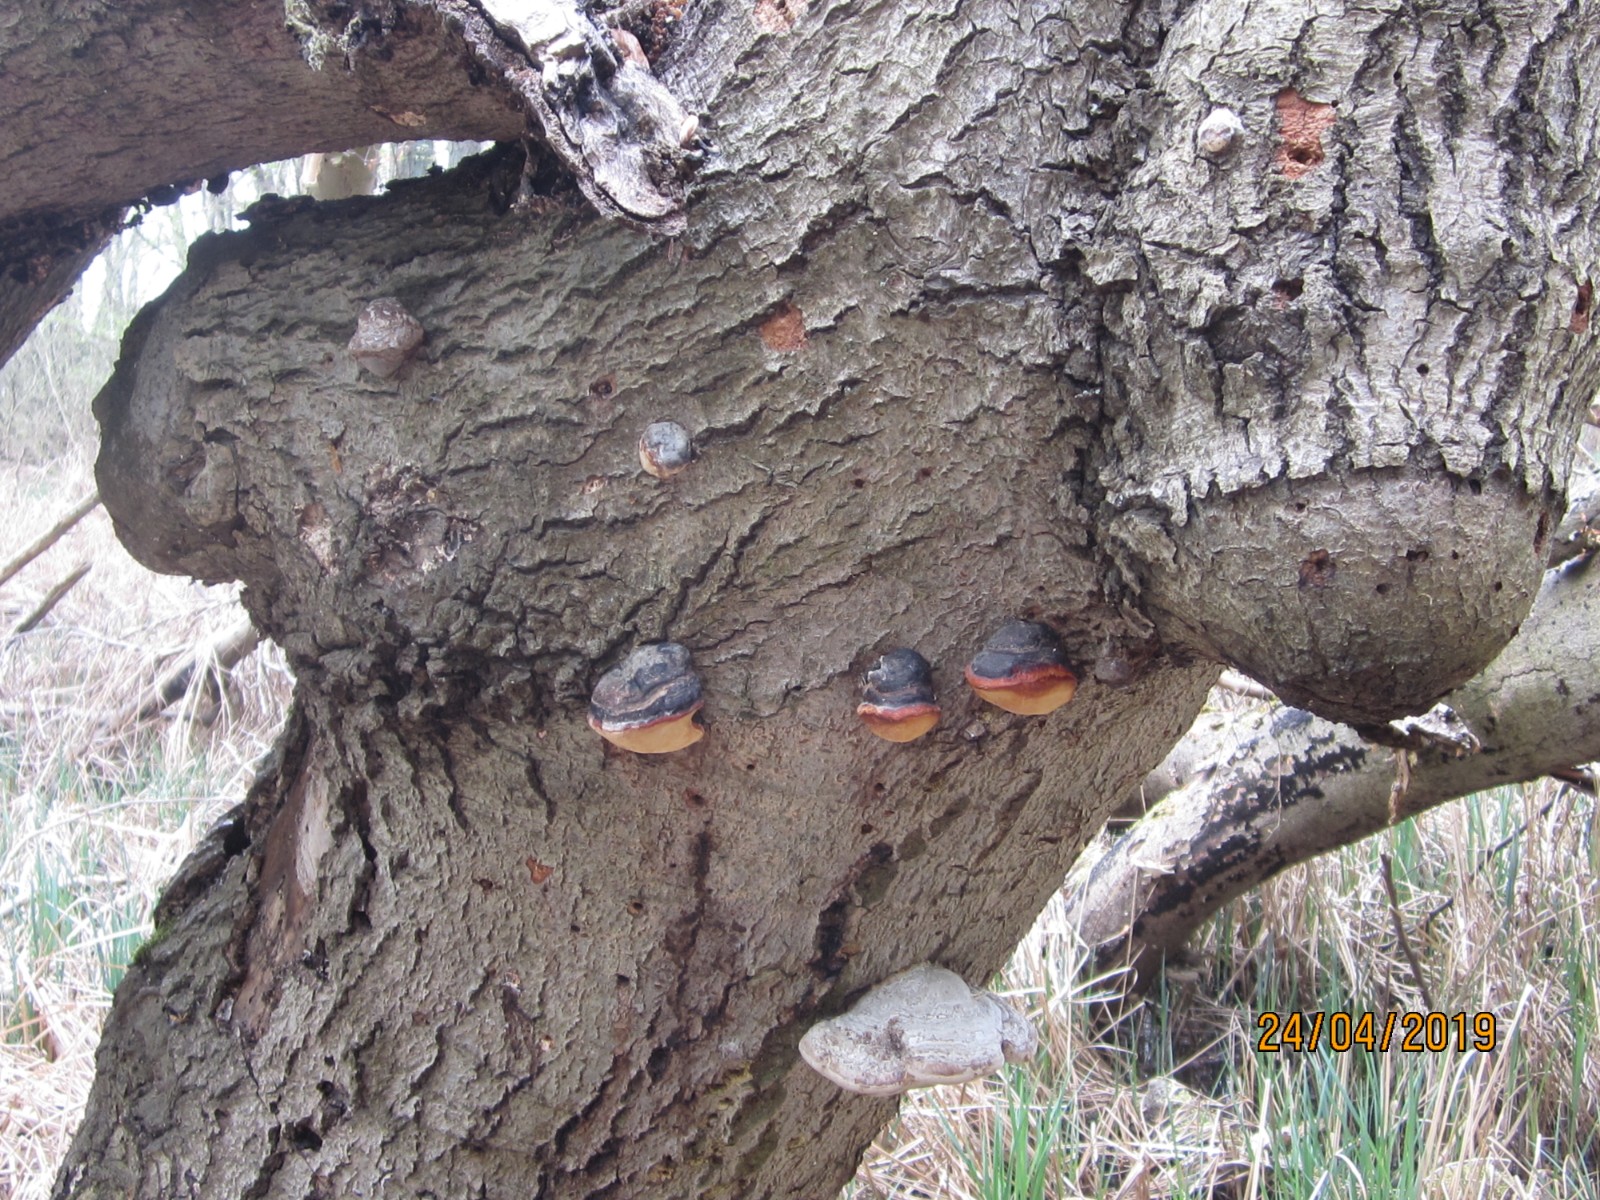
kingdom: Fungi
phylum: Basidiomycota
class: Agaricomycetes
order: Polyporales
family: Fomitopsidaceae
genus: Fomitopsis
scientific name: Fomitopsis pinicola
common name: randbæltet hovporesvamp
